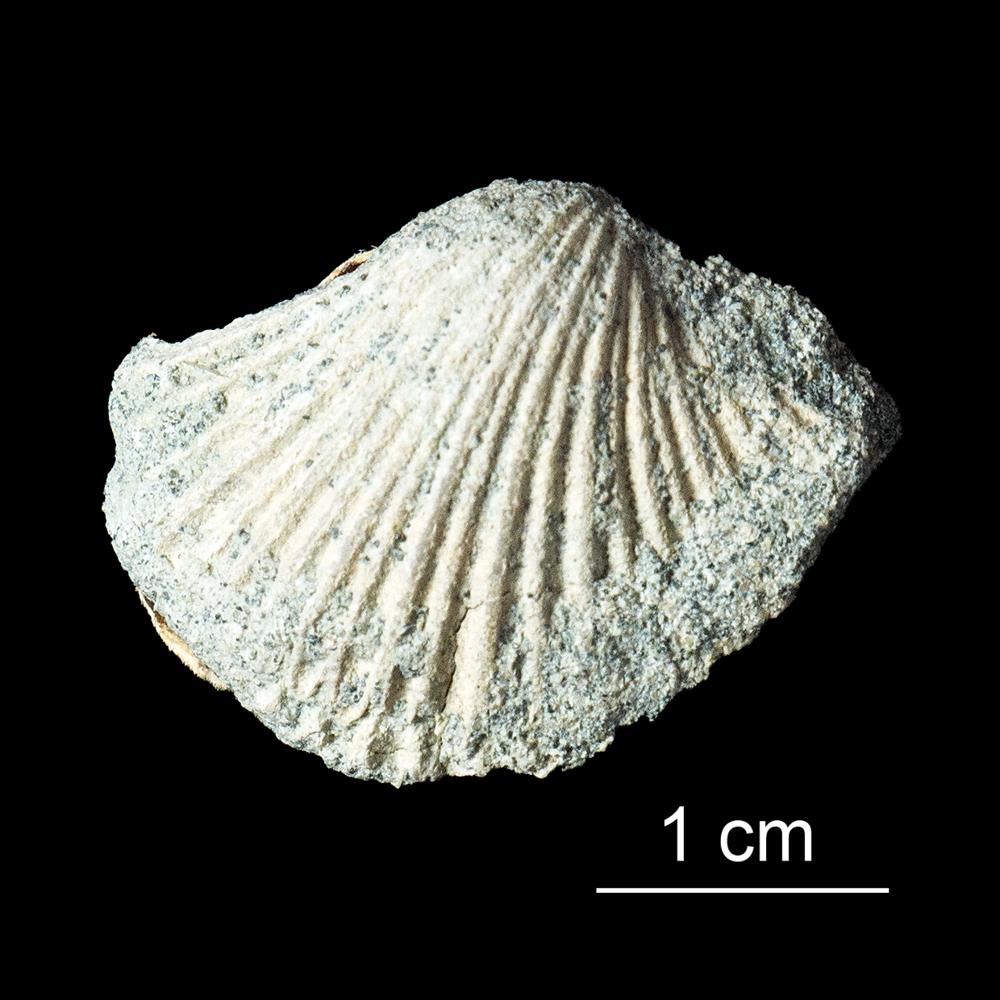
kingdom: Animalia
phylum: Brachiopoda
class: Rhynchonellata
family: Productorthidae
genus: Panderina
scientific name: Panderina
